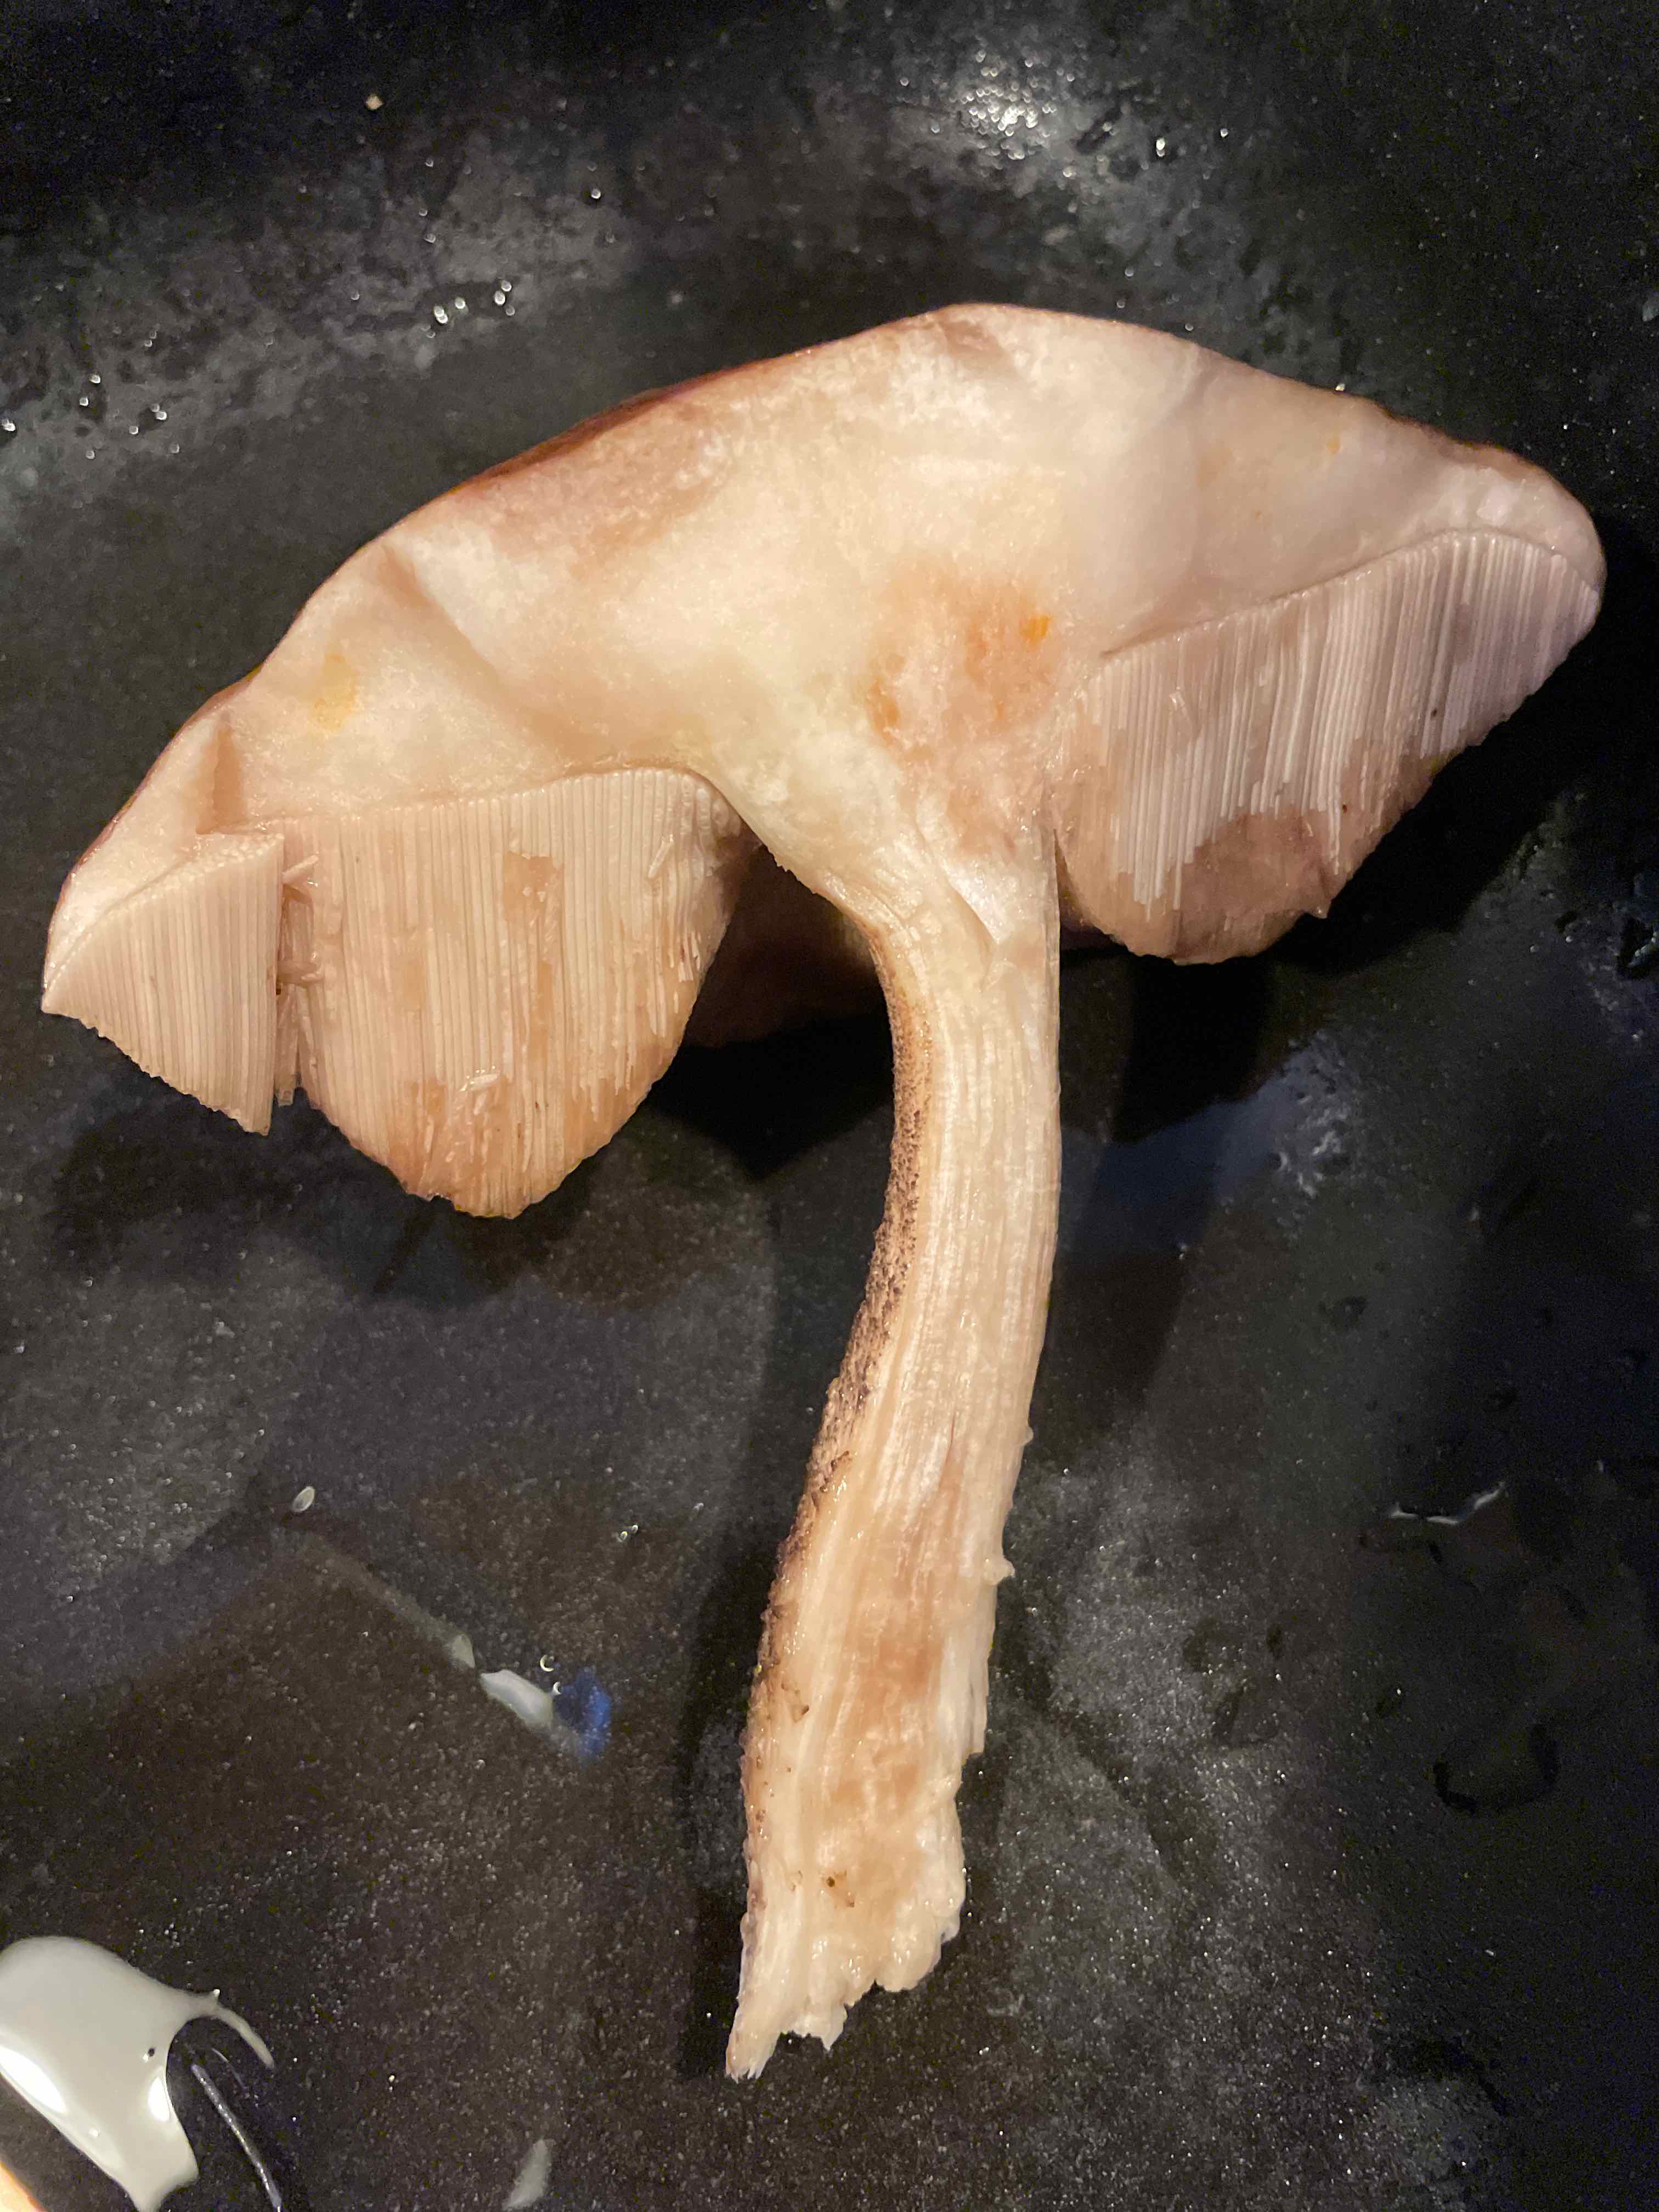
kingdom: Fungi
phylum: Basidiomycota
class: Agaricomycetes
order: Boletales
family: Boletaceae
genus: Leccinum
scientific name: Leccinum
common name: skælrørhat
